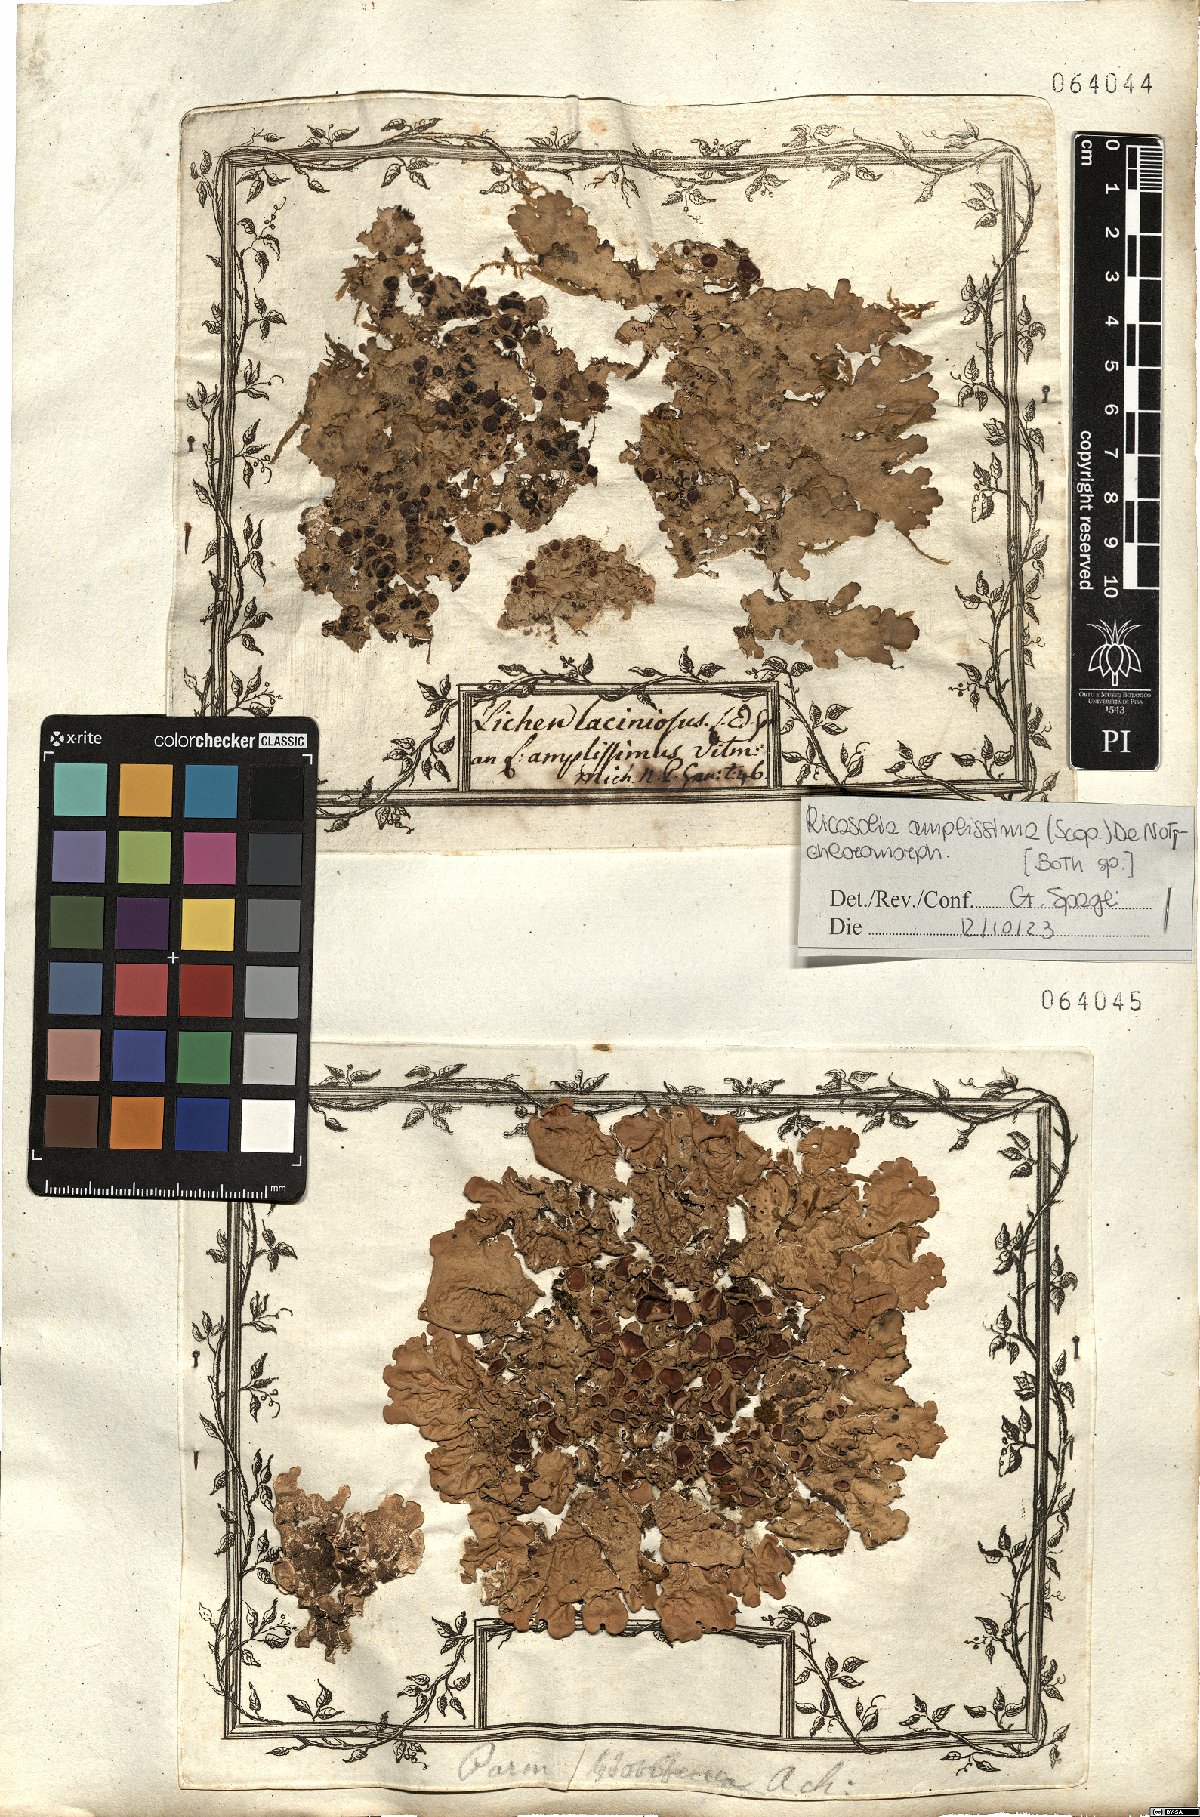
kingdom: Fungi
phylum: Ascomycota
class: Lecanoromycetes
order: Peltigerales
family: Lobariaceae
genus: Ricasolia
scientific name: Ricasolia amplissima
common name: Giant candlewax lichen
